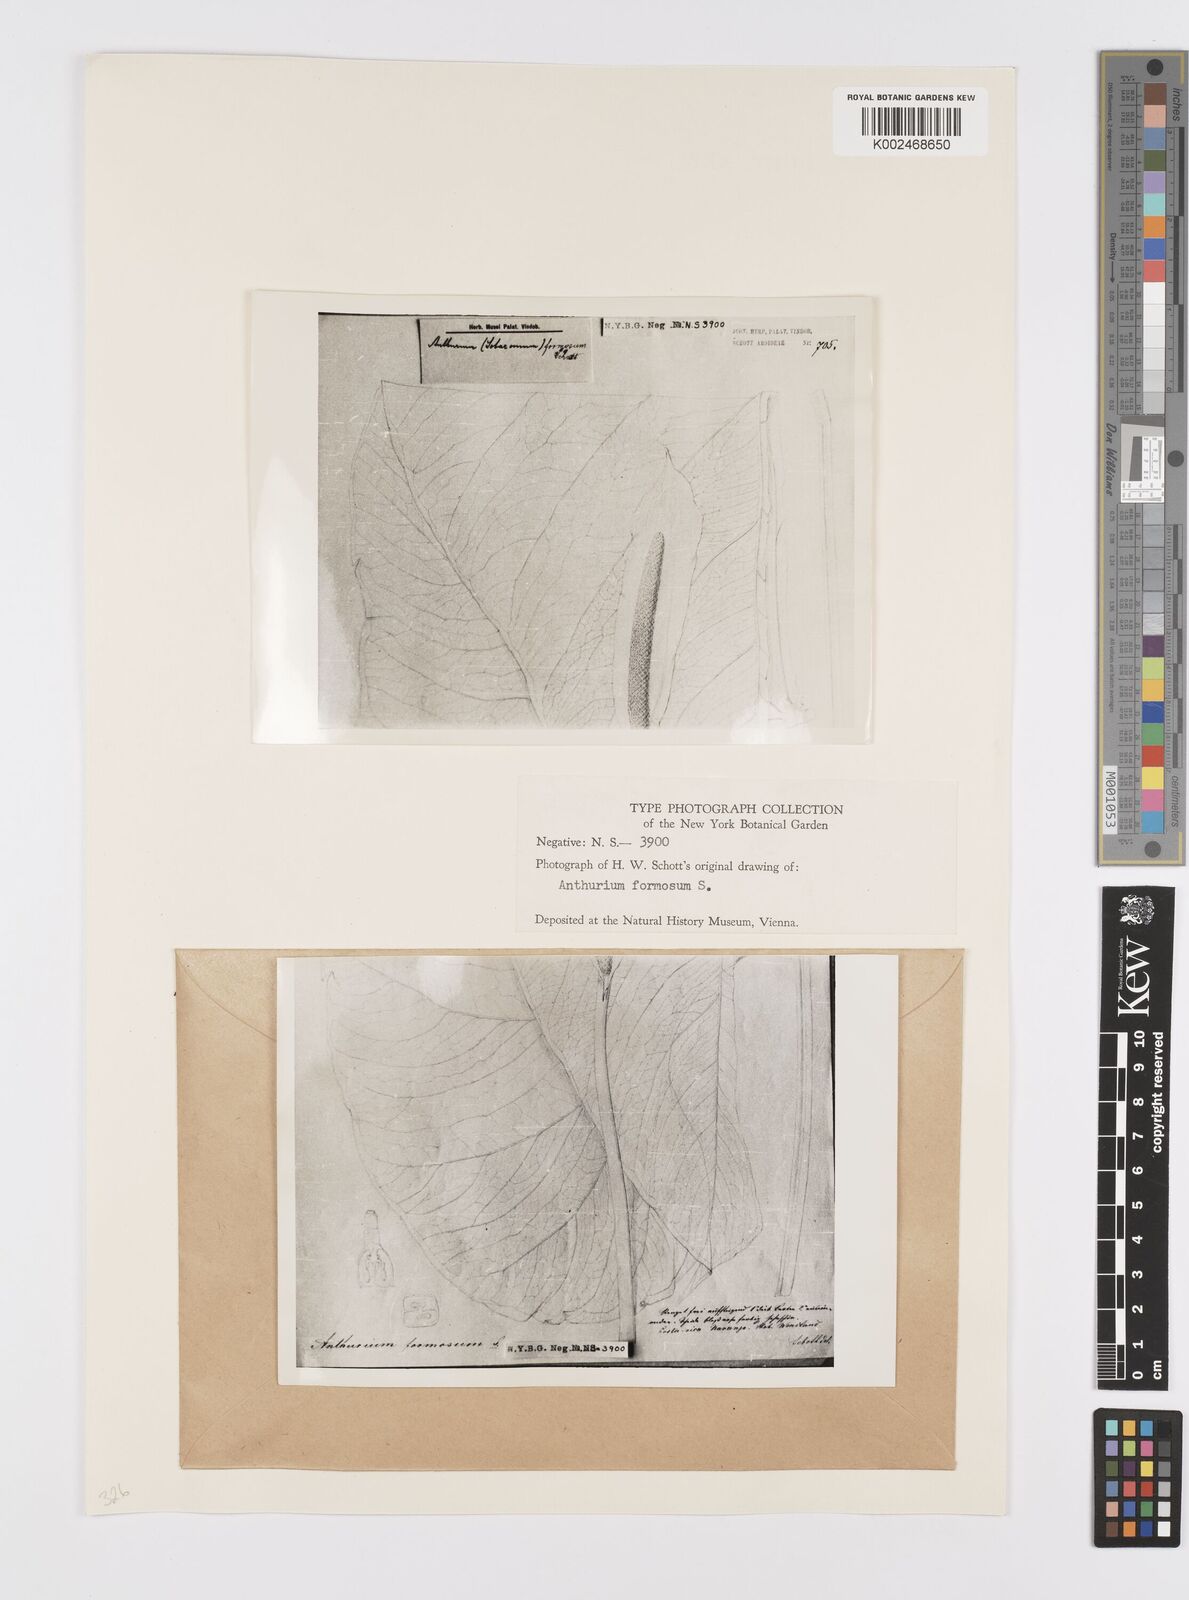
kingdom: Plantae
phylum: Tracheophyta
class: Liliopsida
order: Alismatales
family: Araceae
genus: Anthurium
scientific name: Anthurium formosum
